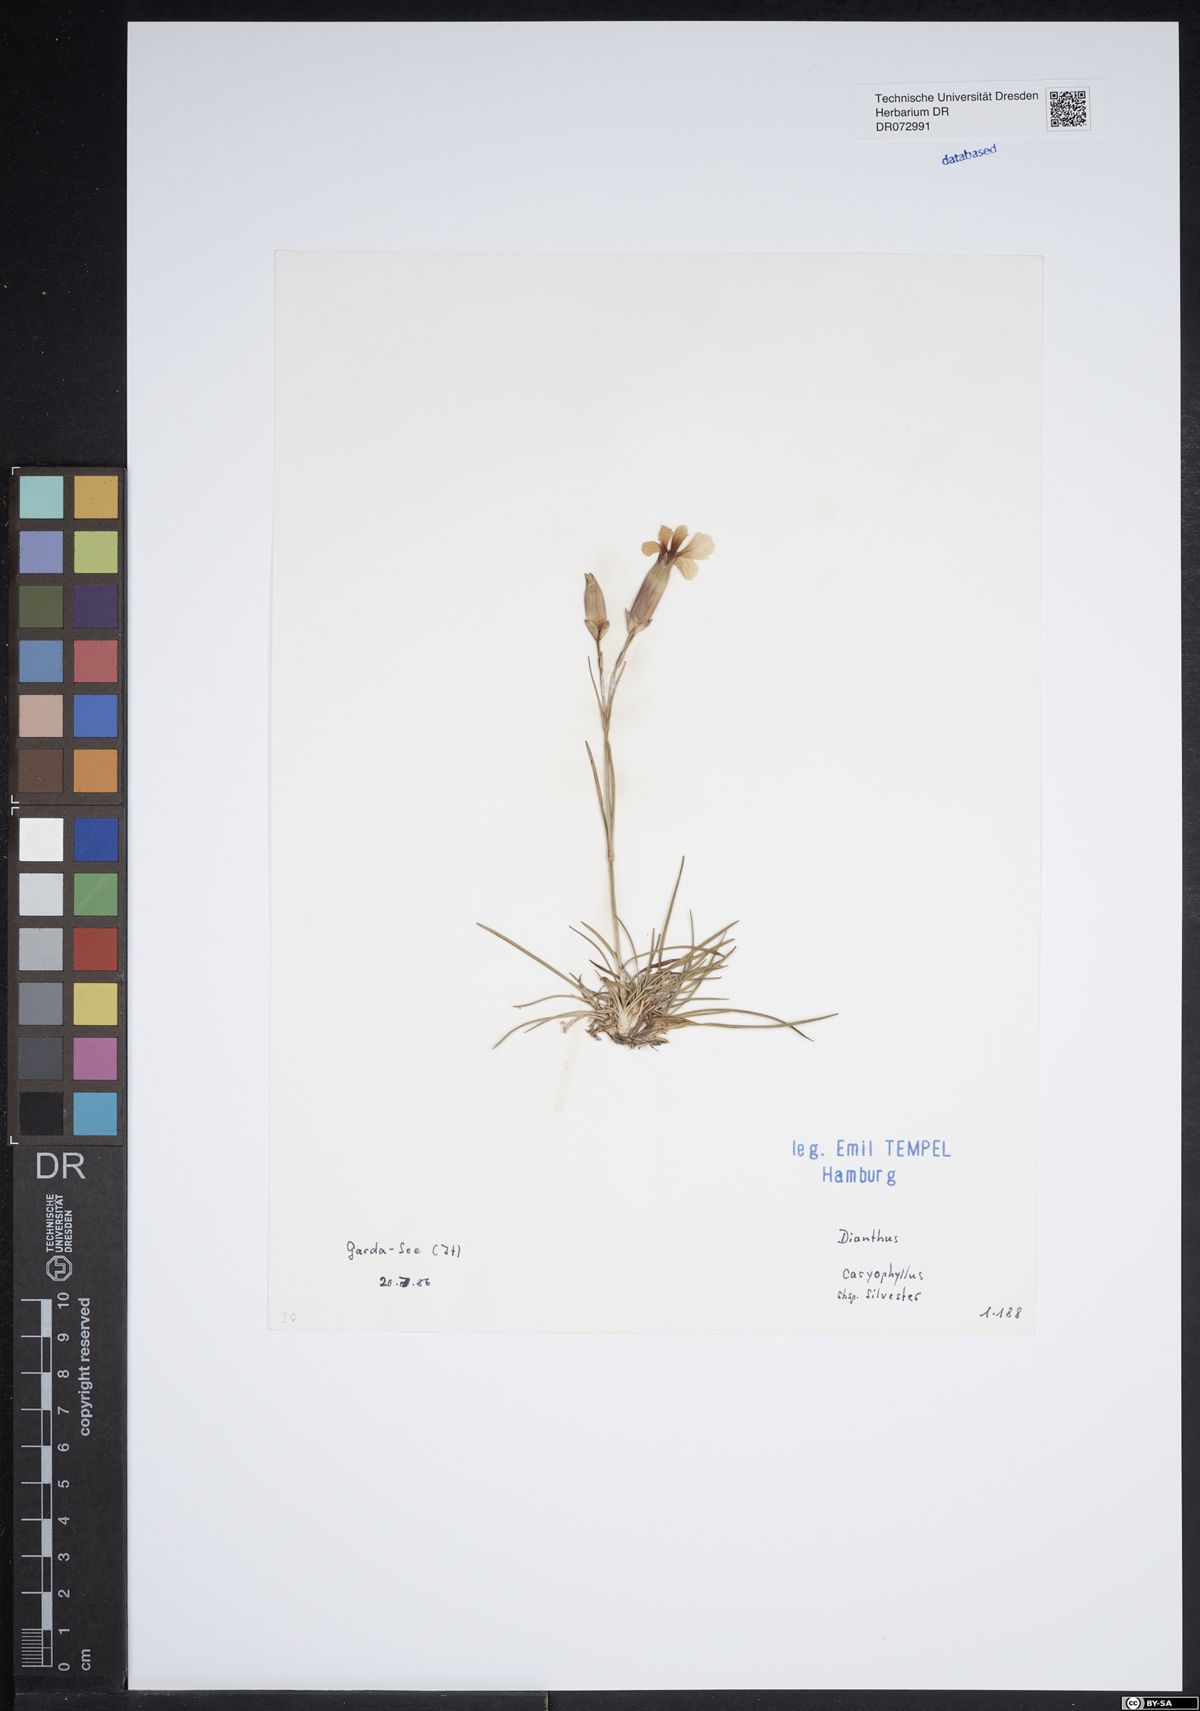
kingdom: Plantae
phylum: Tracheophyta
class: Magnoliopsida
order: Caryophyllales
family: Caryophyllaceae
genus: Dianthus
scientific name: Dianthus caryophyllus
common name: Clove pink
